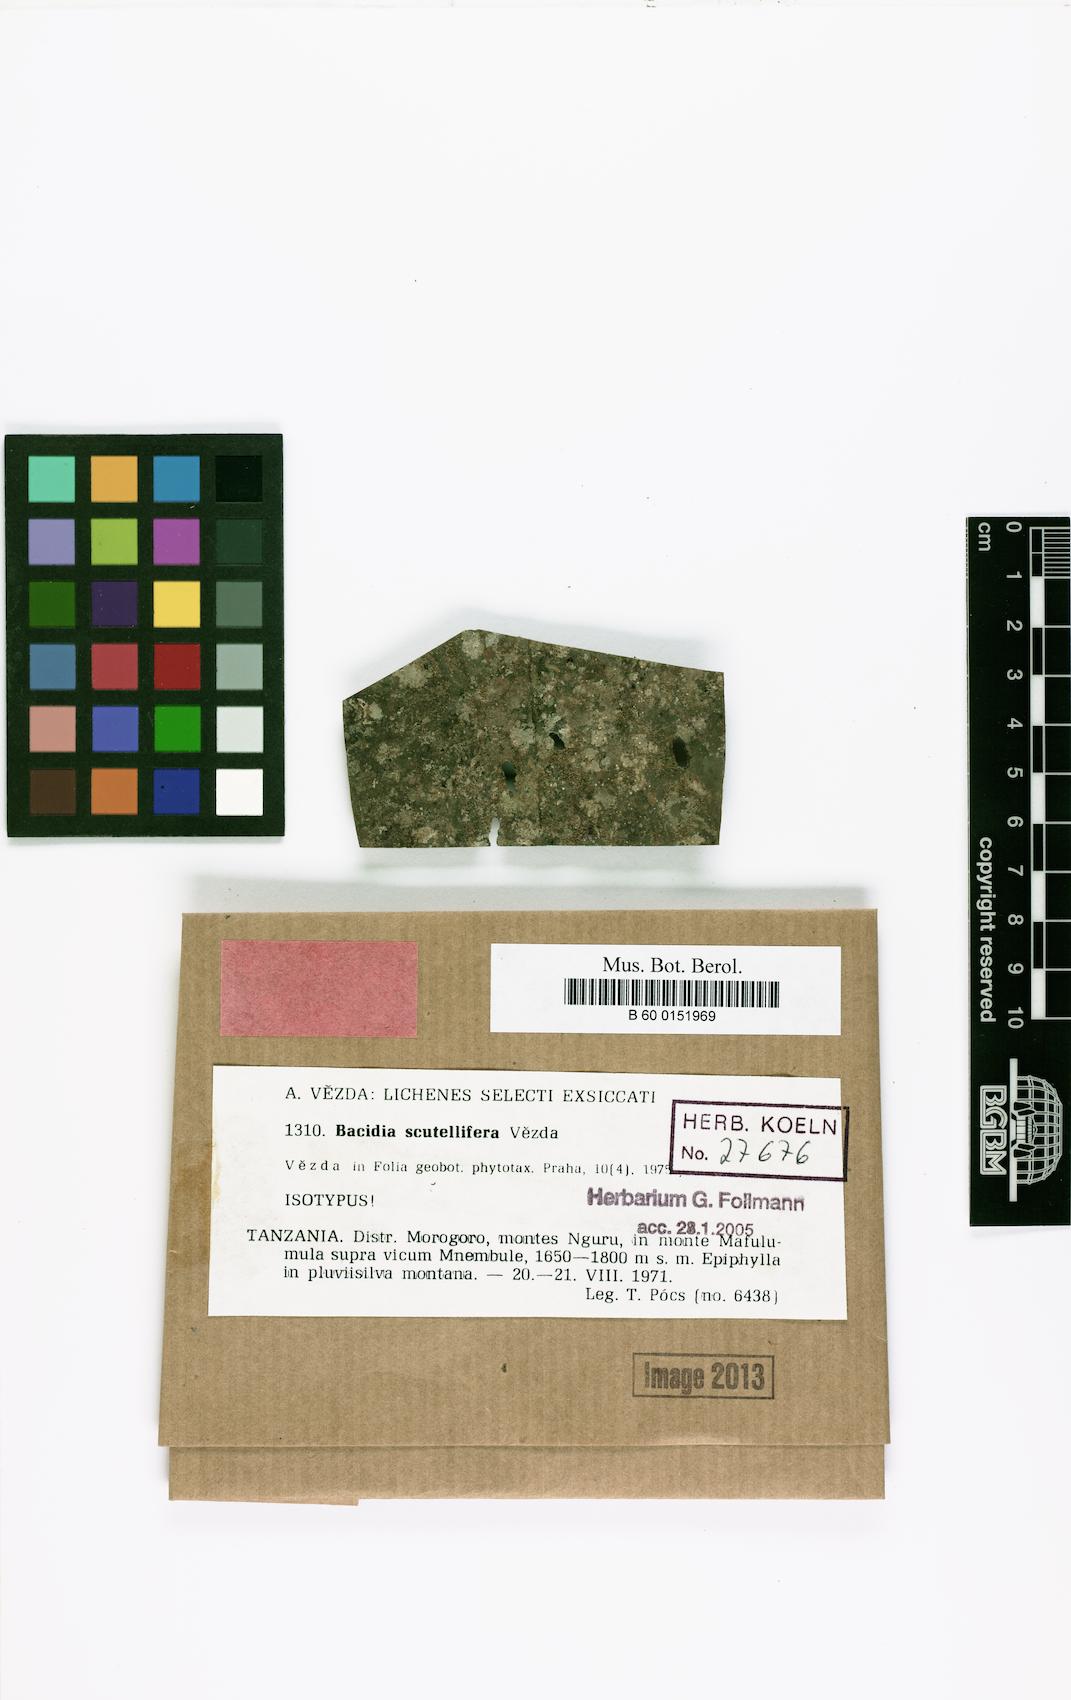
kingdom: Fungi
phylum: Ascomycota
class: Lecanoromycetes
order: Lecanorales
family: Ramalinaceae
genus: Bacidina
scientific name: Bacidina scutellifera
